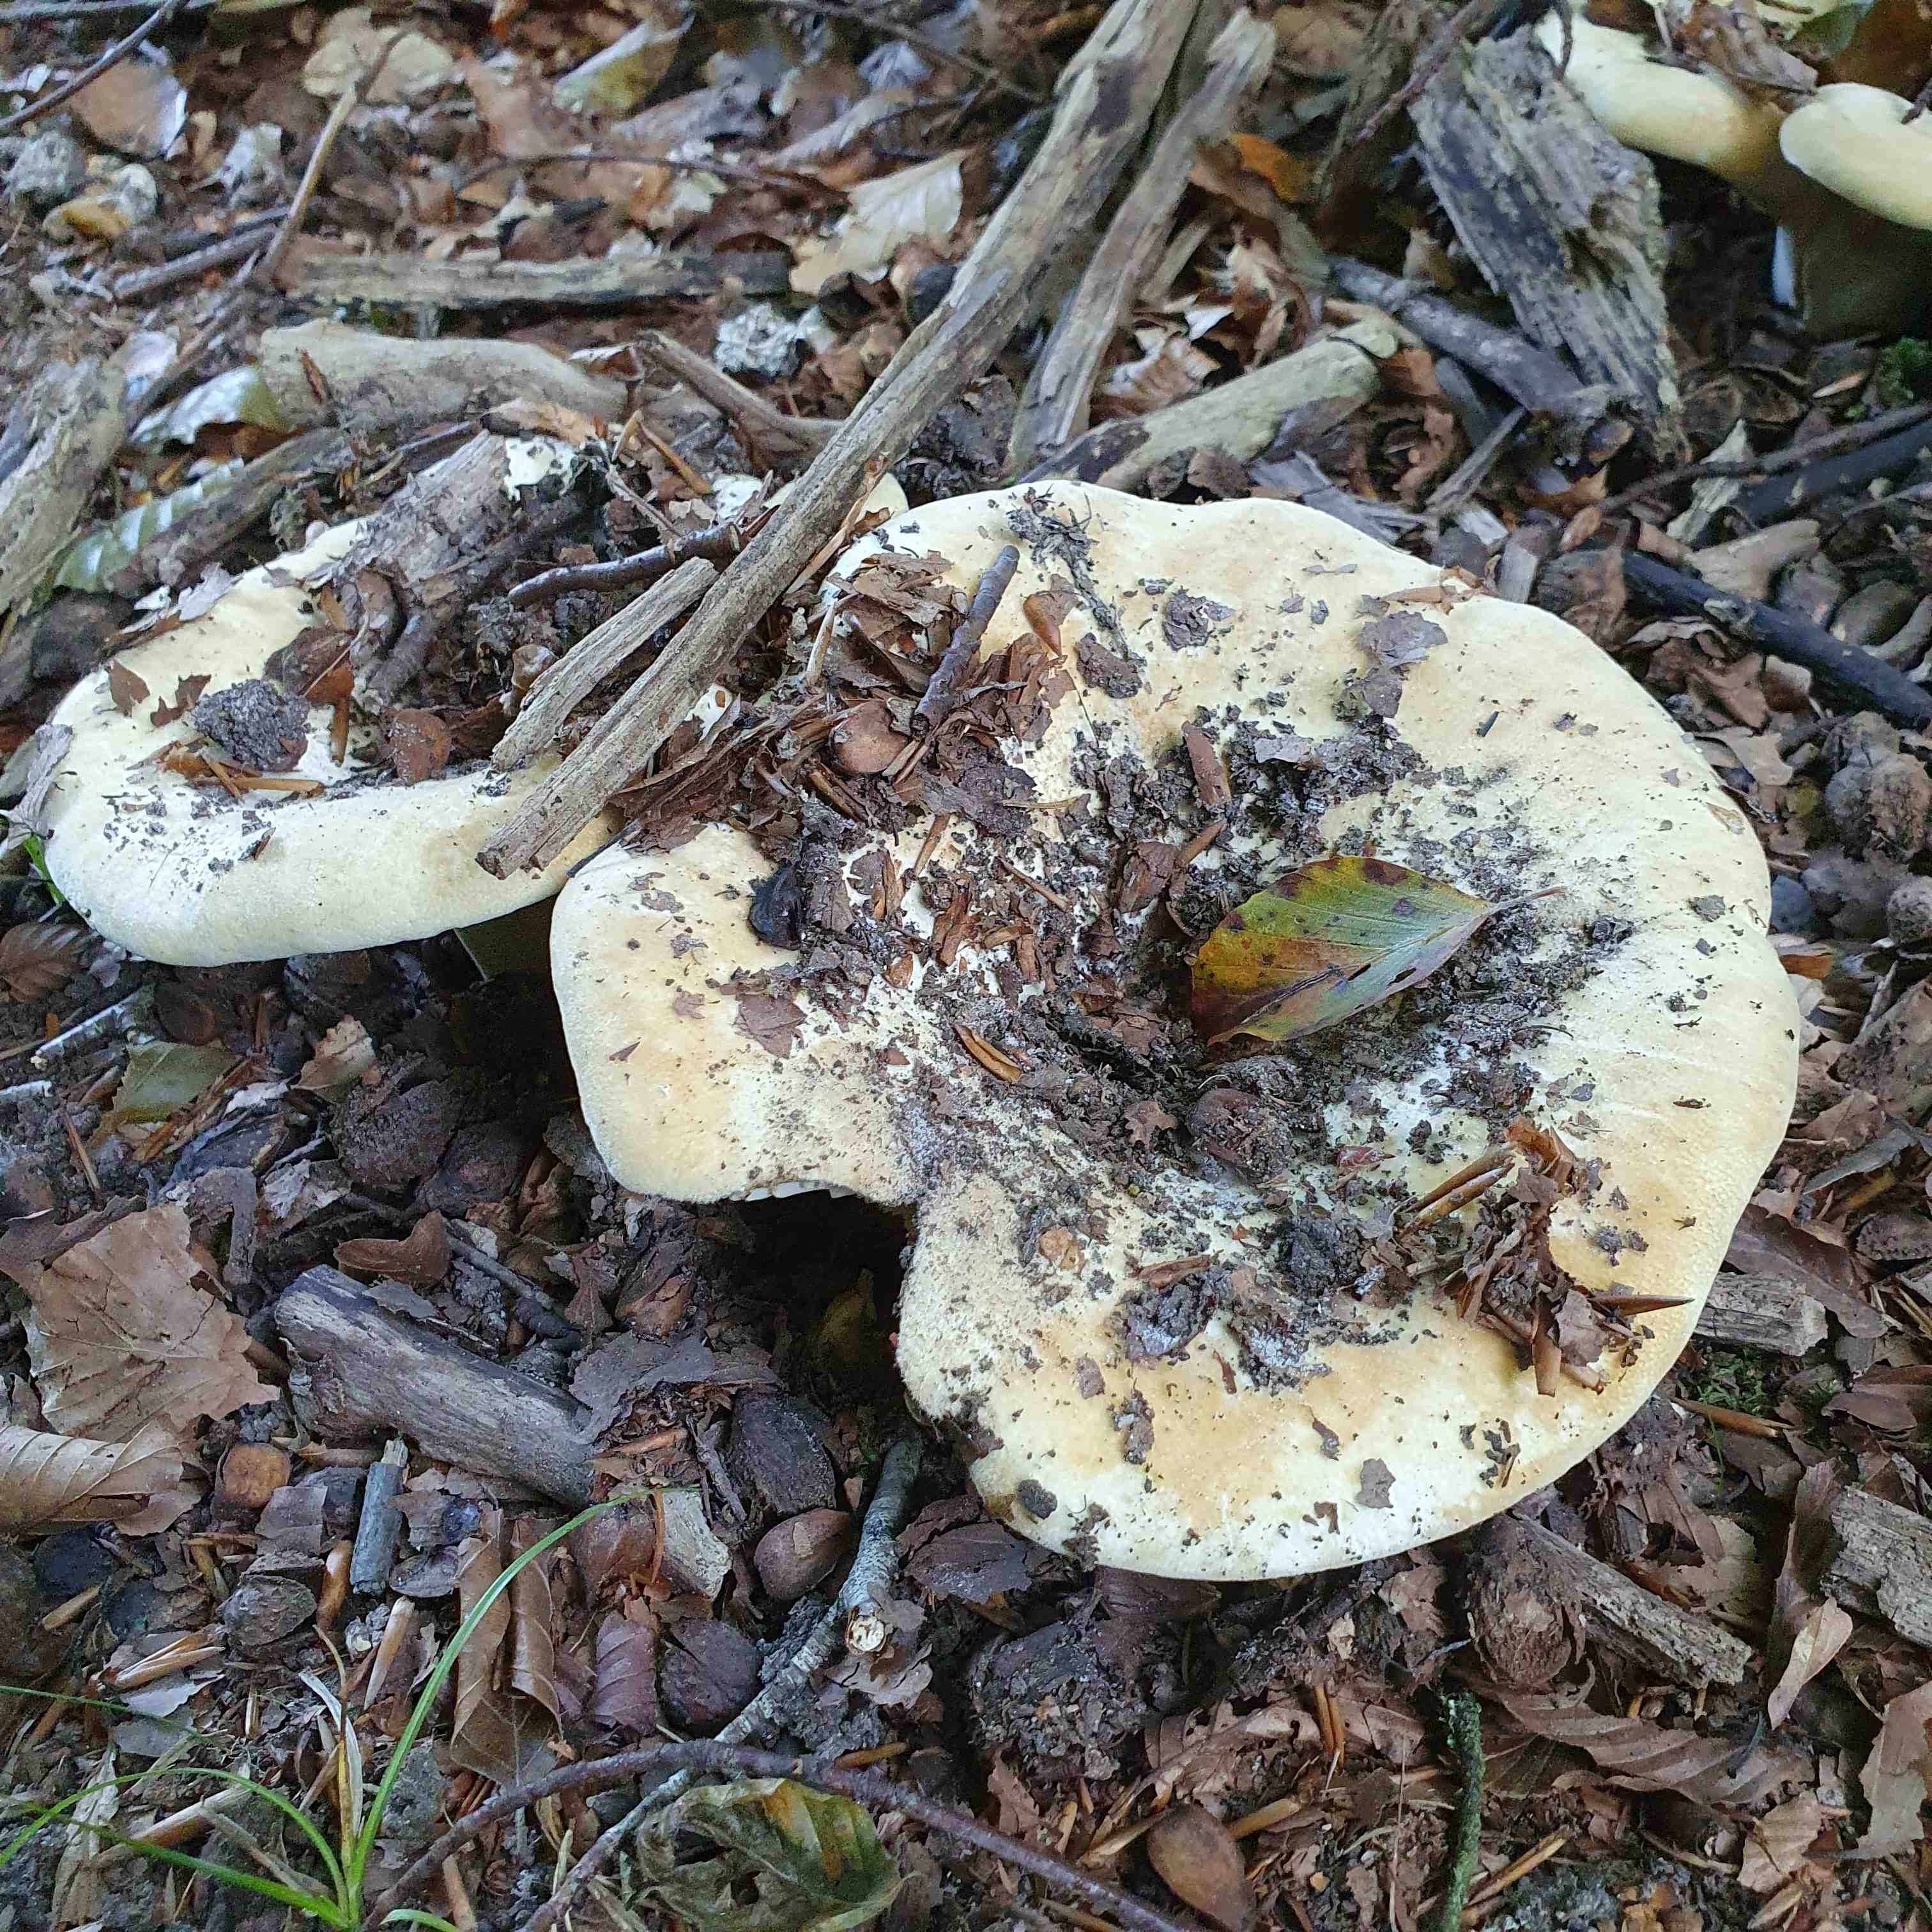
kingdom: Fungi
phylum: Basidiomycota
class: Agaricomycetes
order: Russulales
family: Russulaceae
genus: Lactifluus
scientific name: Lactifluus vellereus
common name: hvidfiltet mælkehat
